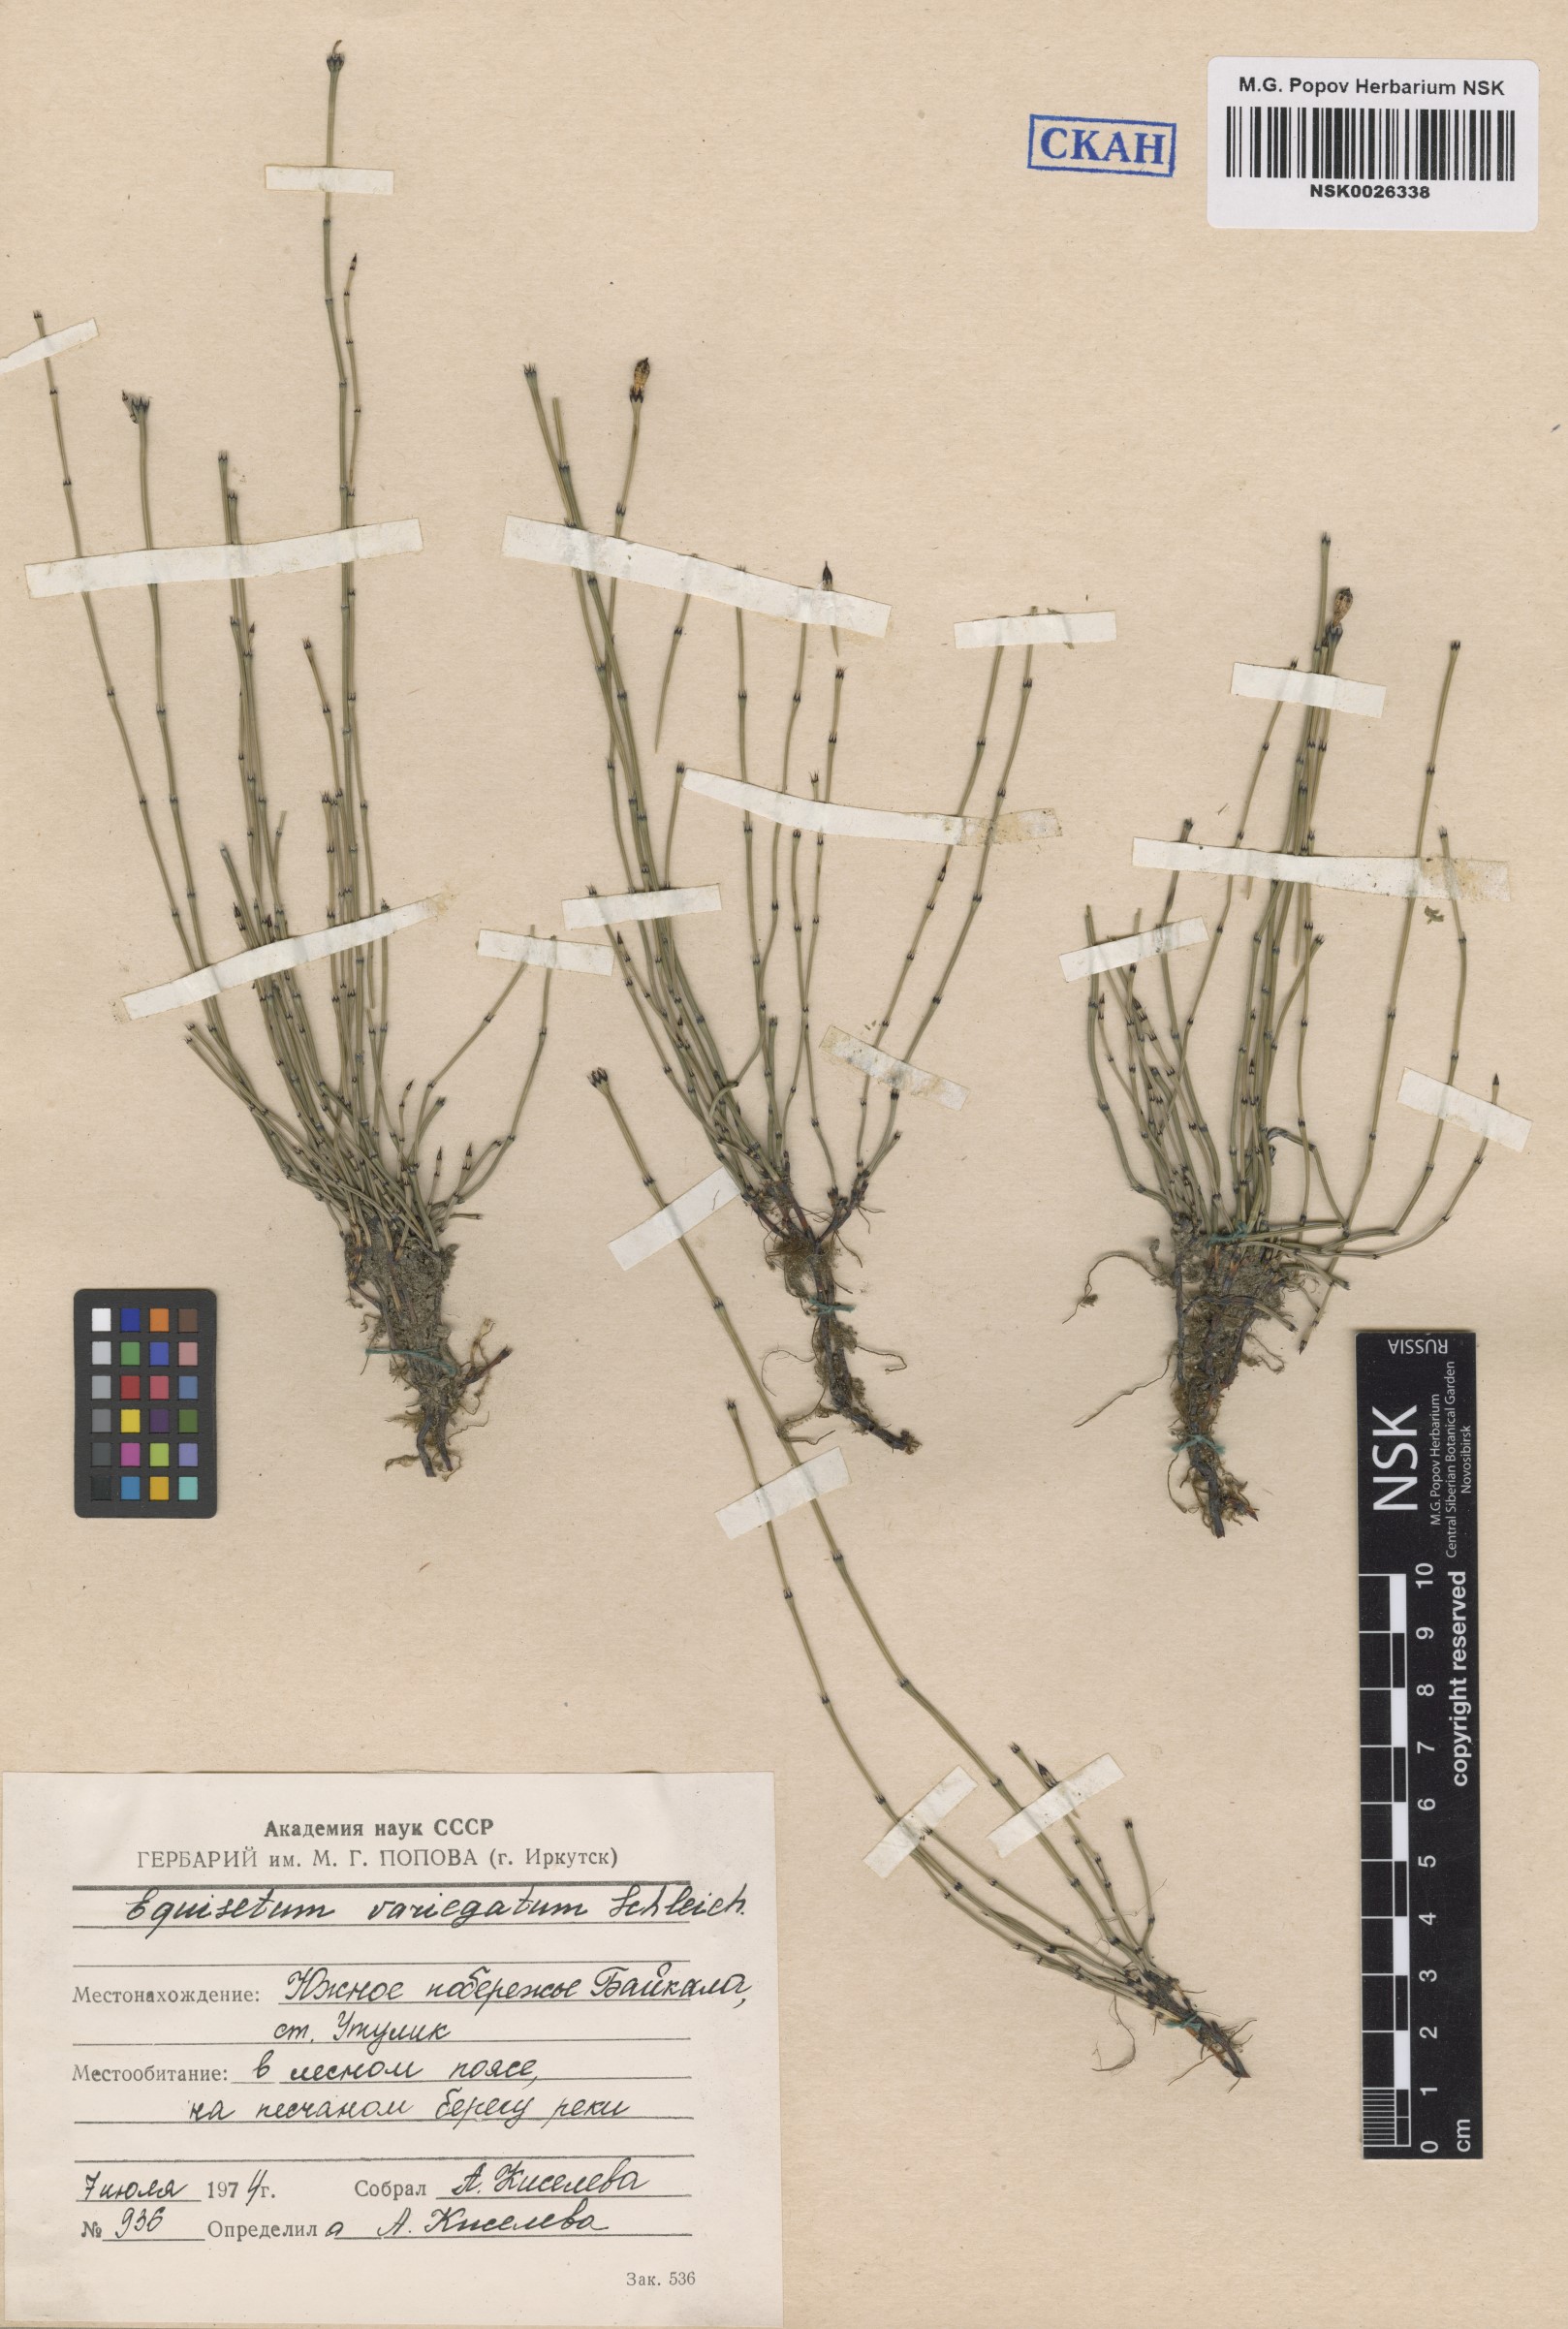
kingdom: Plantae
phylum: Tracheophyta
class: Polypodiopsida
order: Equisetales
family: Equisetaceae
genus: Equisetum
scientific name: Equisetum variegatum
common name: Variegated horsetail
